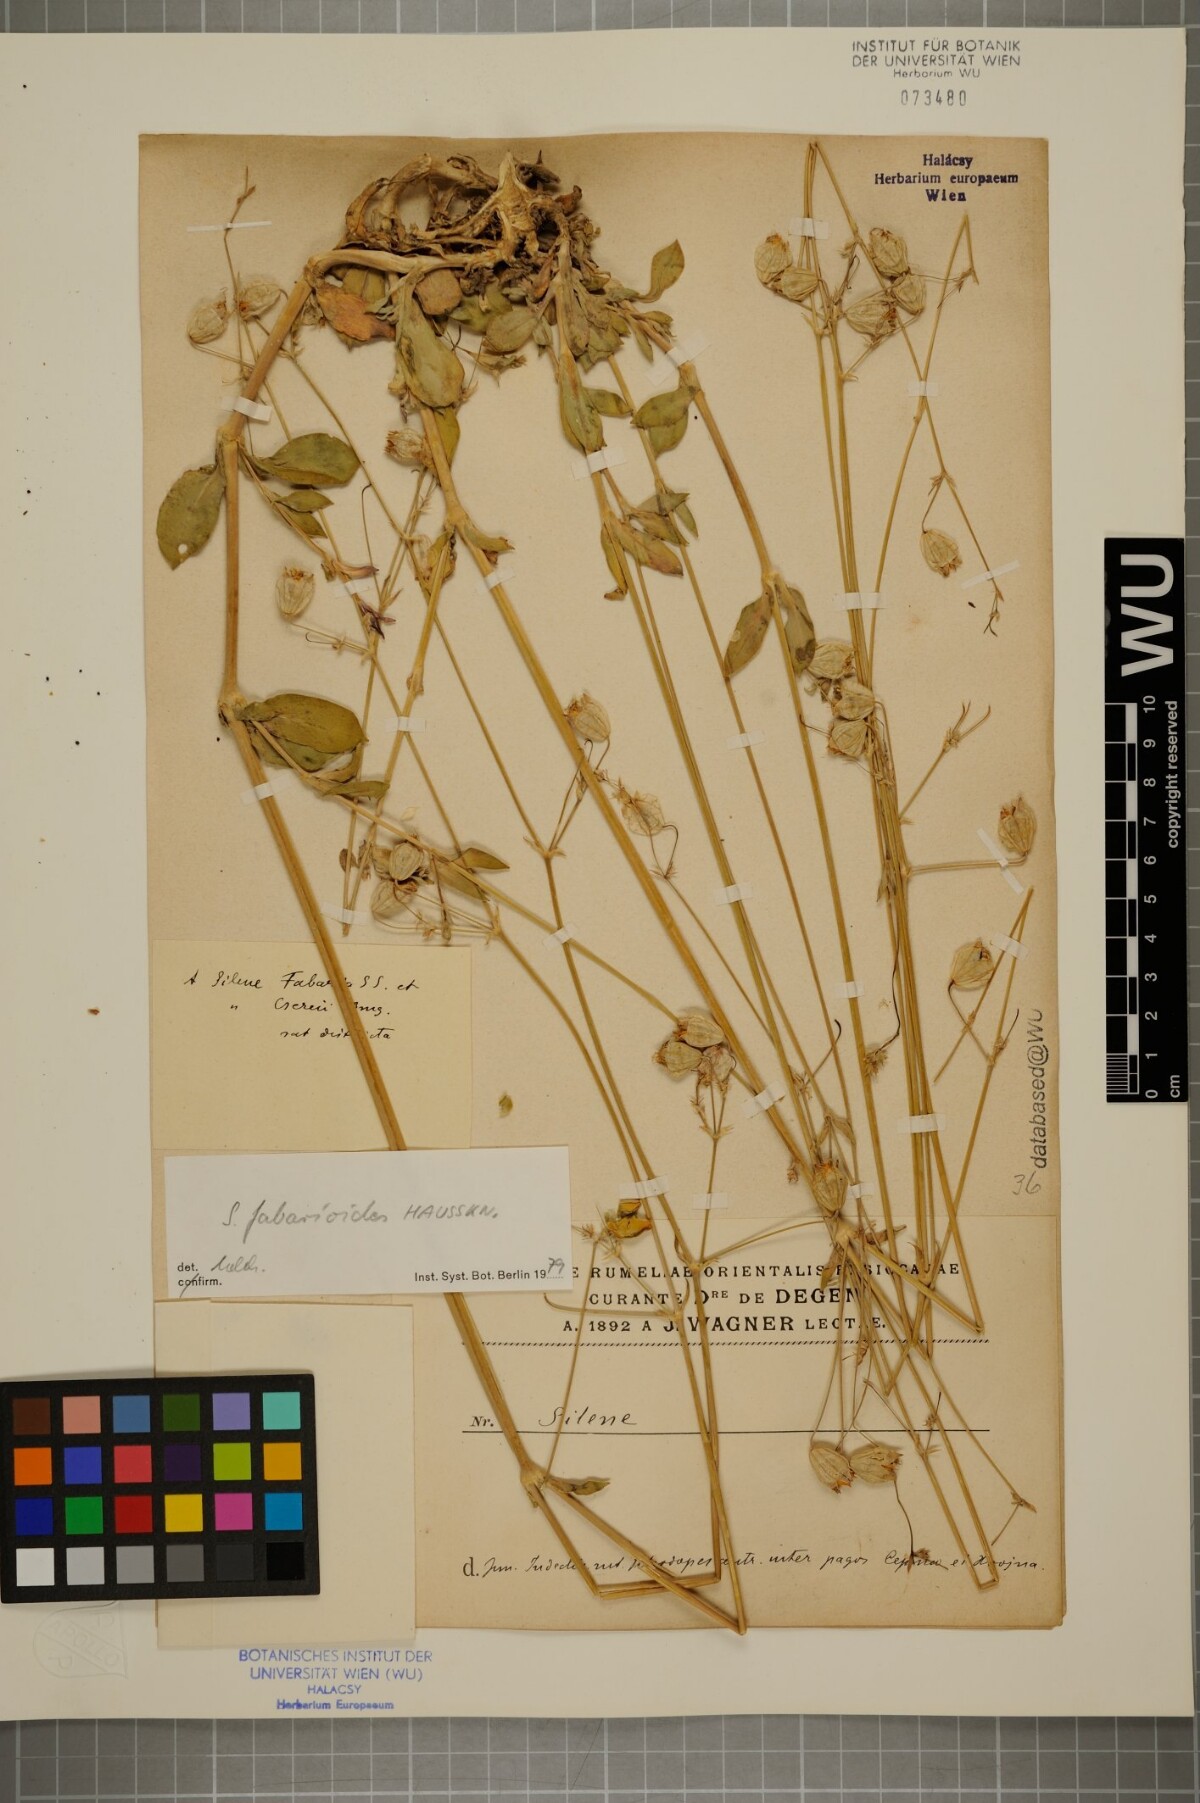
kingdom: Plantae
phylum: Tracheophyta
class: Magnoliopsida
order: Caryophyllales
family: Caryophyllaceae
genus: Silene
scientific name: Silene fabarioides
